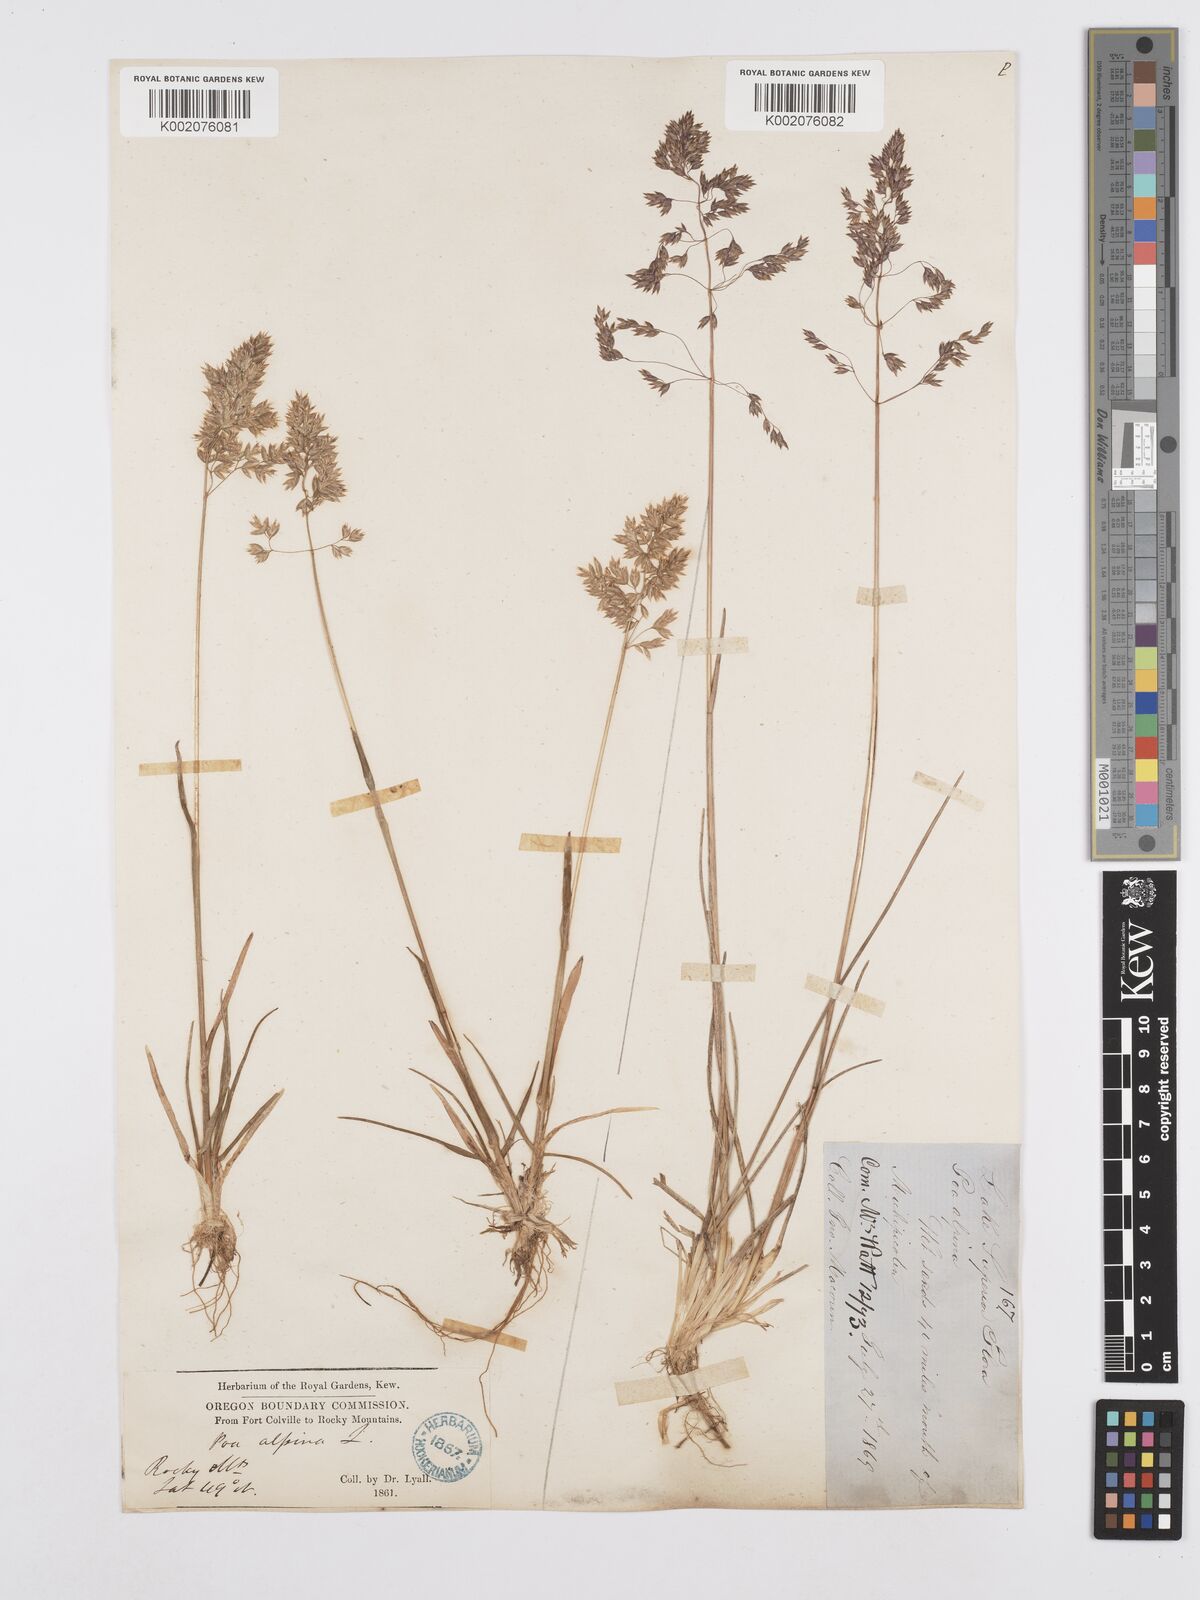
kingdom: Plantae
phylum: Tracheophyta
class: Liliopsida
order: Poales
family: Poaceae
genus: Poa
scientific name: Poa alpina
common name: Alpine bluegrass
